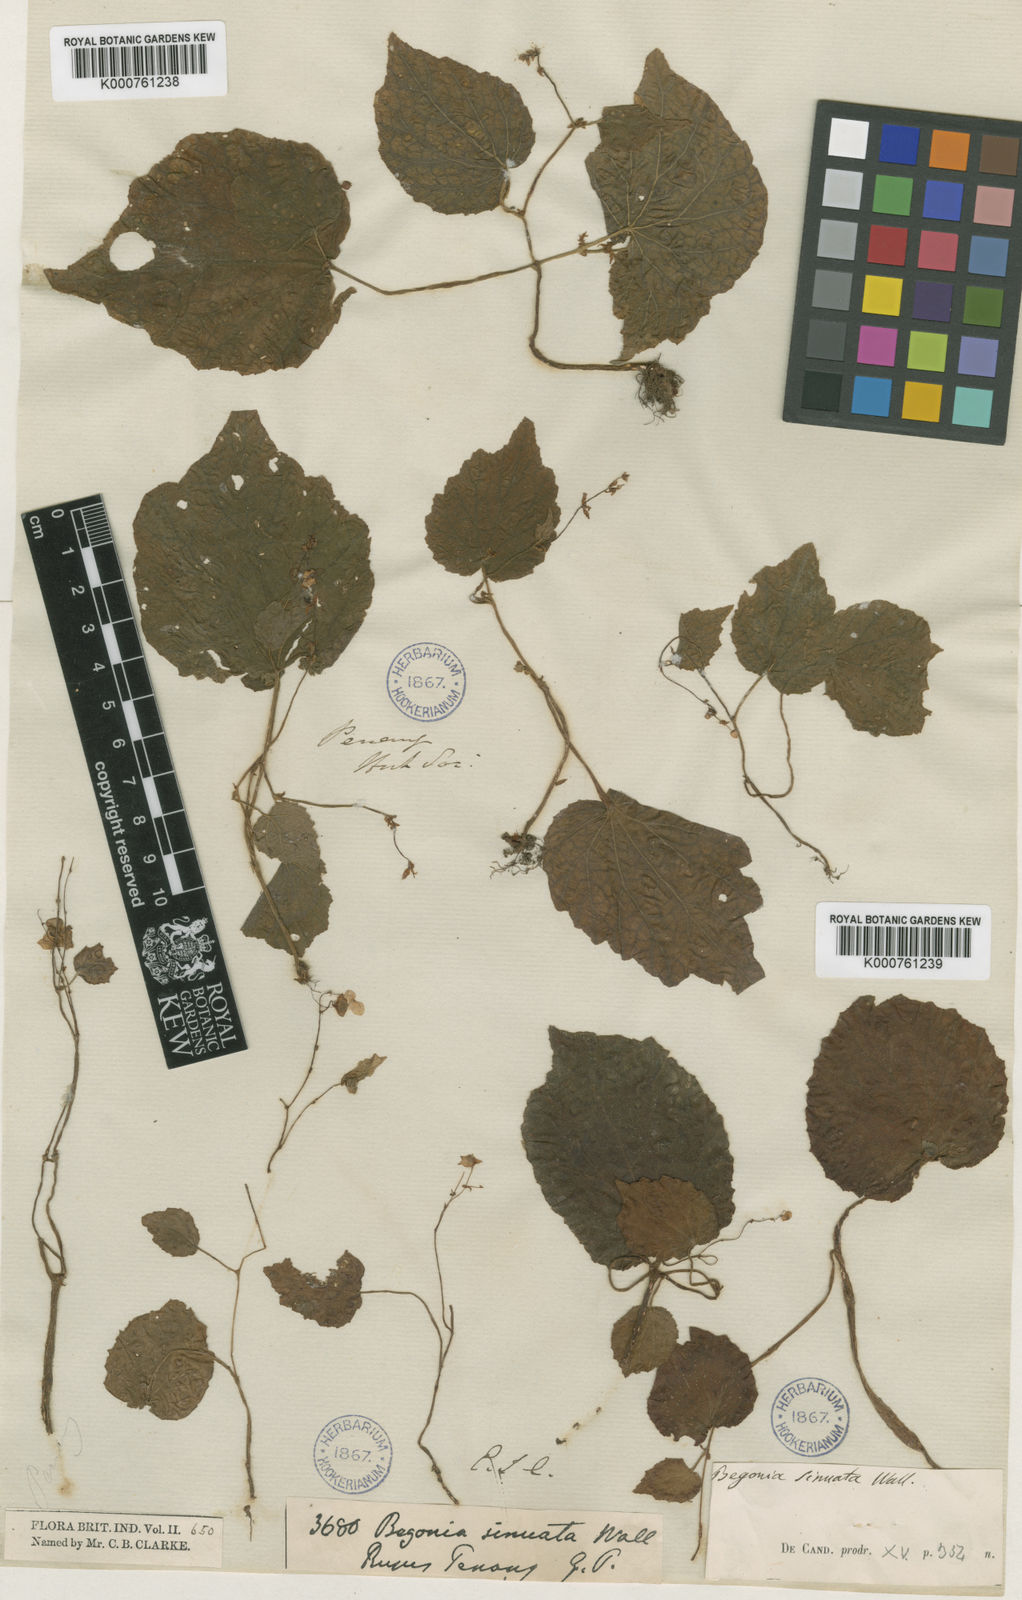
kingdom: Plantae
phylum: Tracheophyta
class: Magnoliopsida
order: Cucurbitales
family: Begoniaceae
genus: Begonia
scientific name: Begonia
